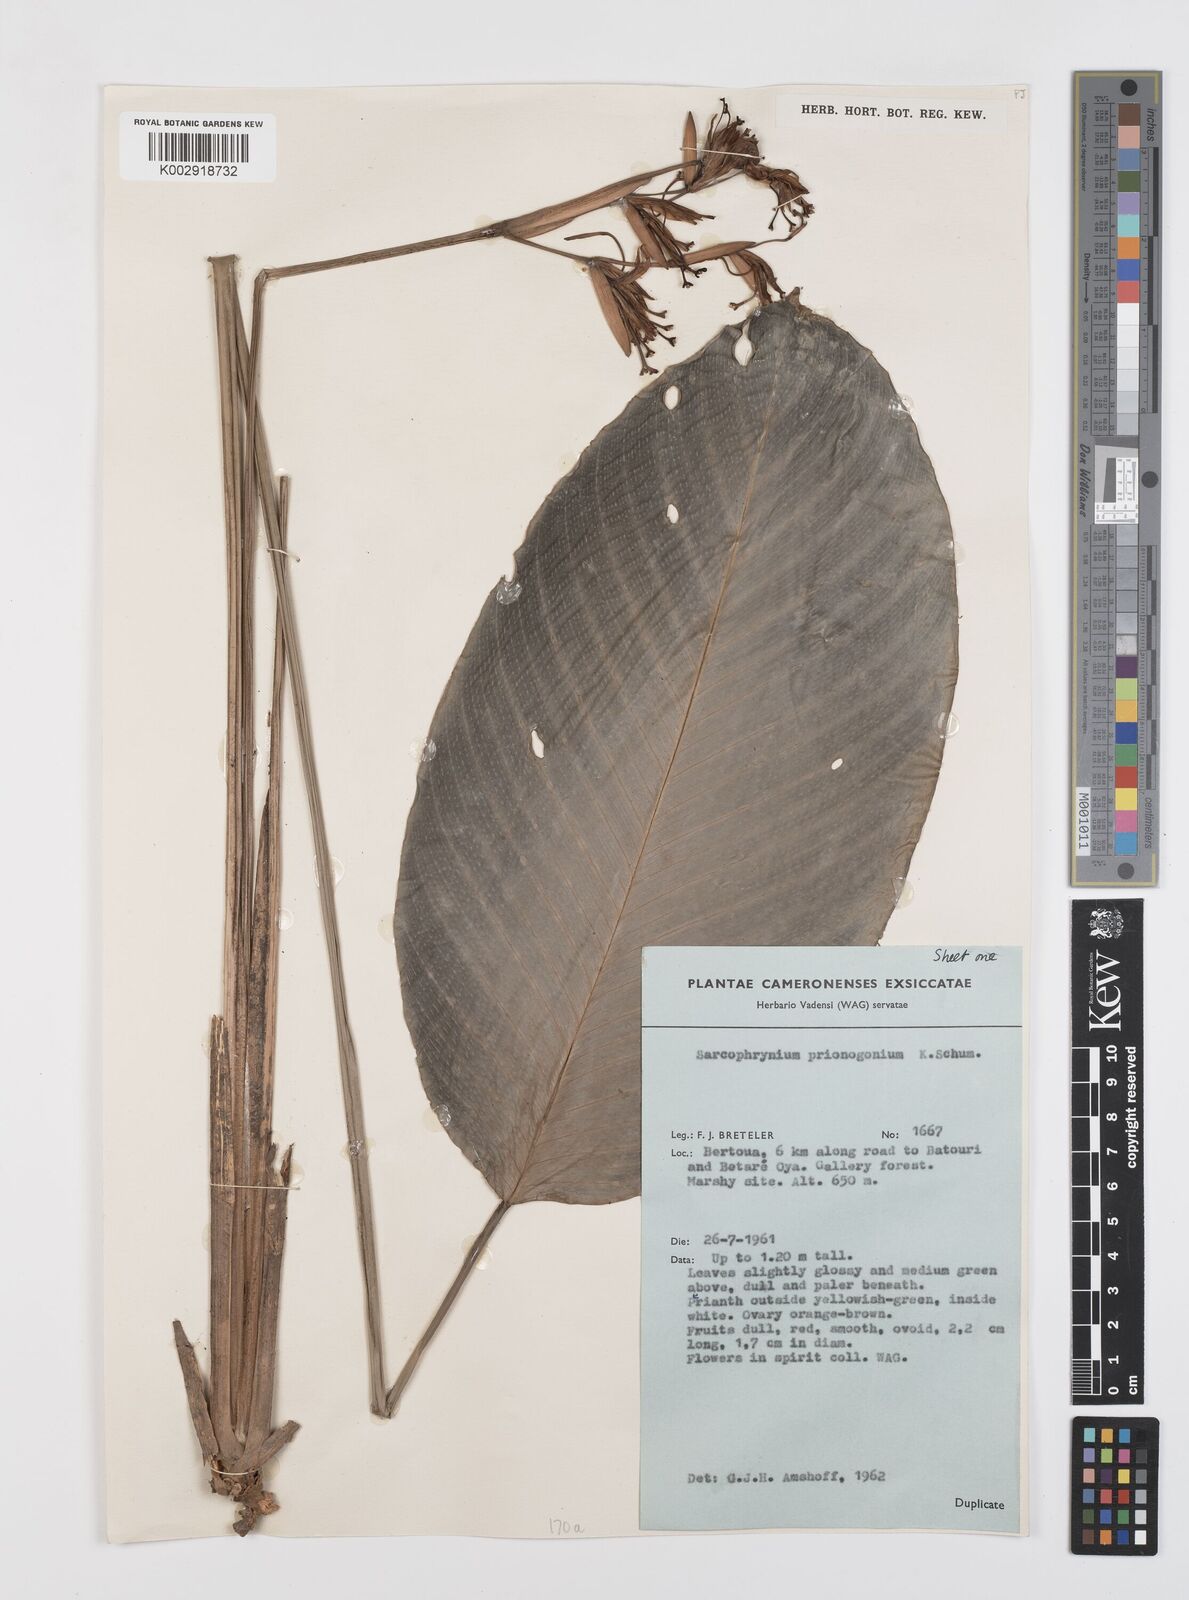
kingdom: Plantae
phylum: Tracheophyta
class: Liliopsida
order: Zingiberales
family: Marantaceae
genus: Sarcophrynium
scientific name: Sarcophrynium prionogonium
